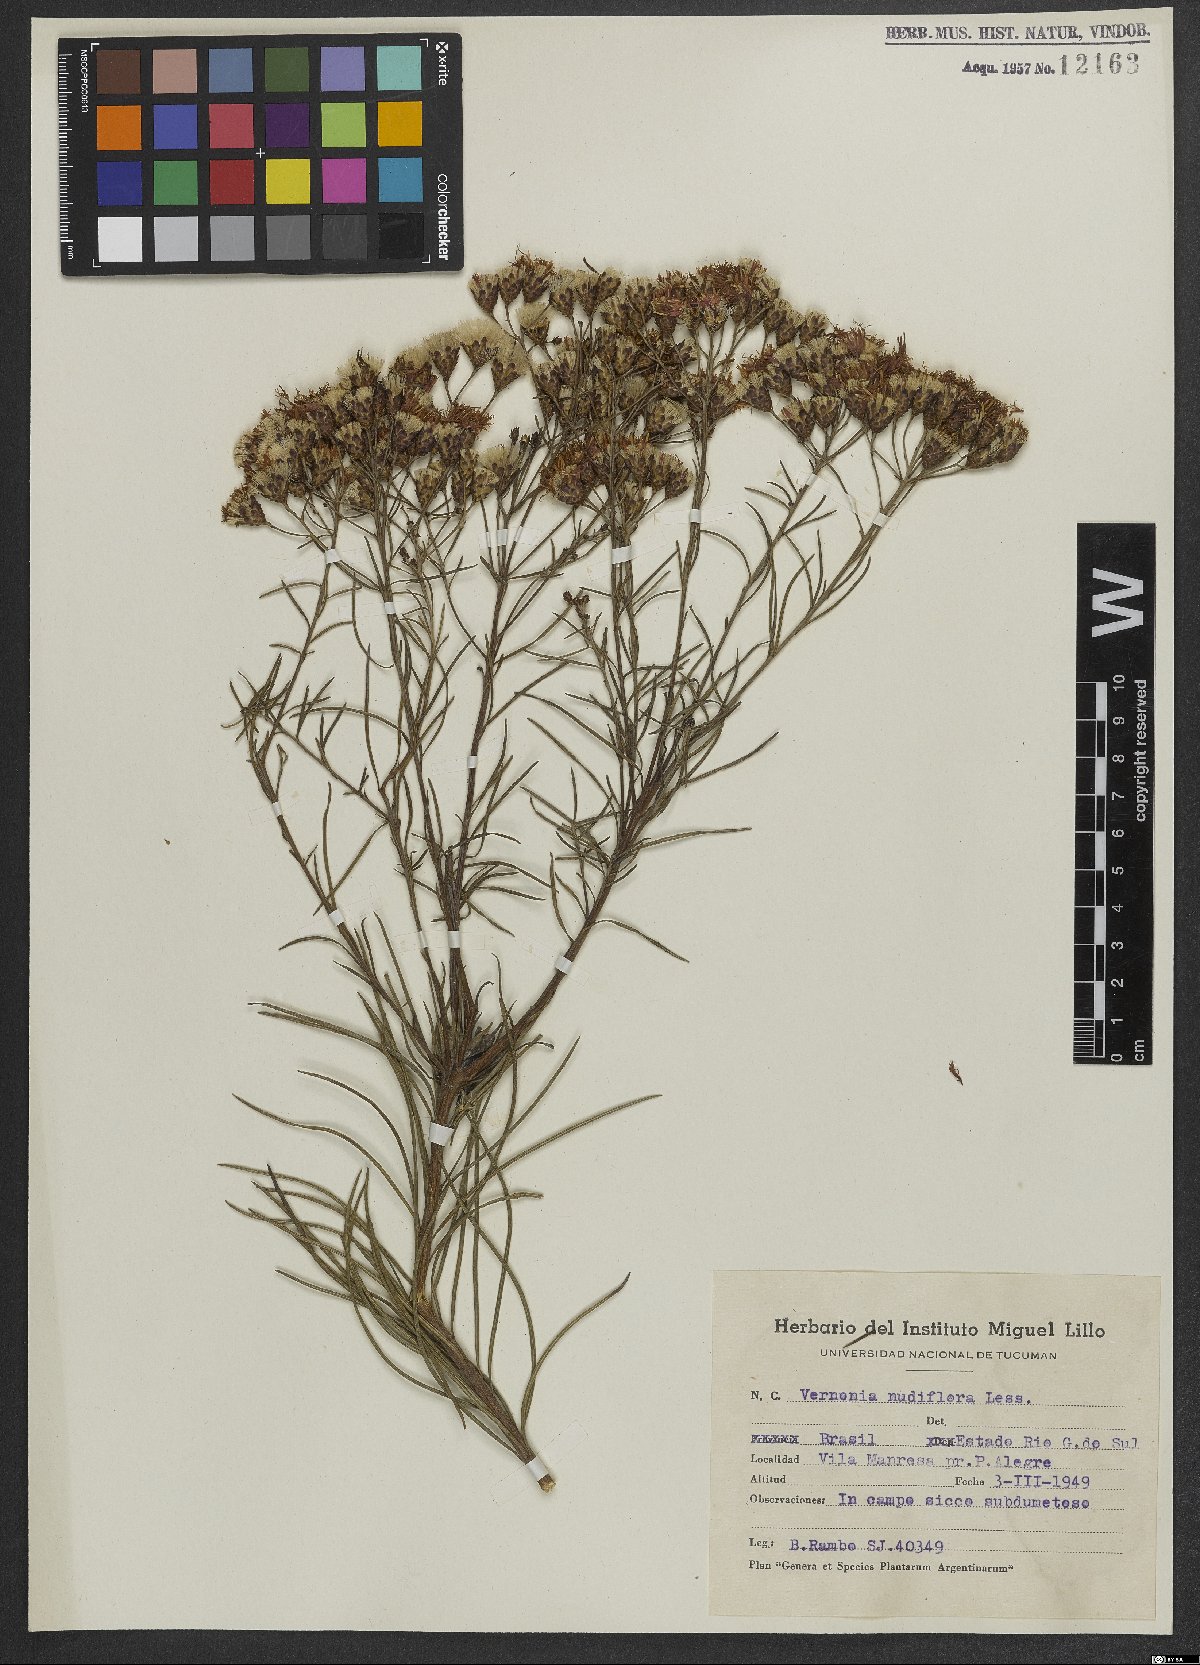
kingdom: Plantae
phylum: Tracheophyta
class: Magnoliopsida
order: Asterales
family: Asteraceae
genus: Vernonanthura
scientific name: Vernonanthura nudiflora
